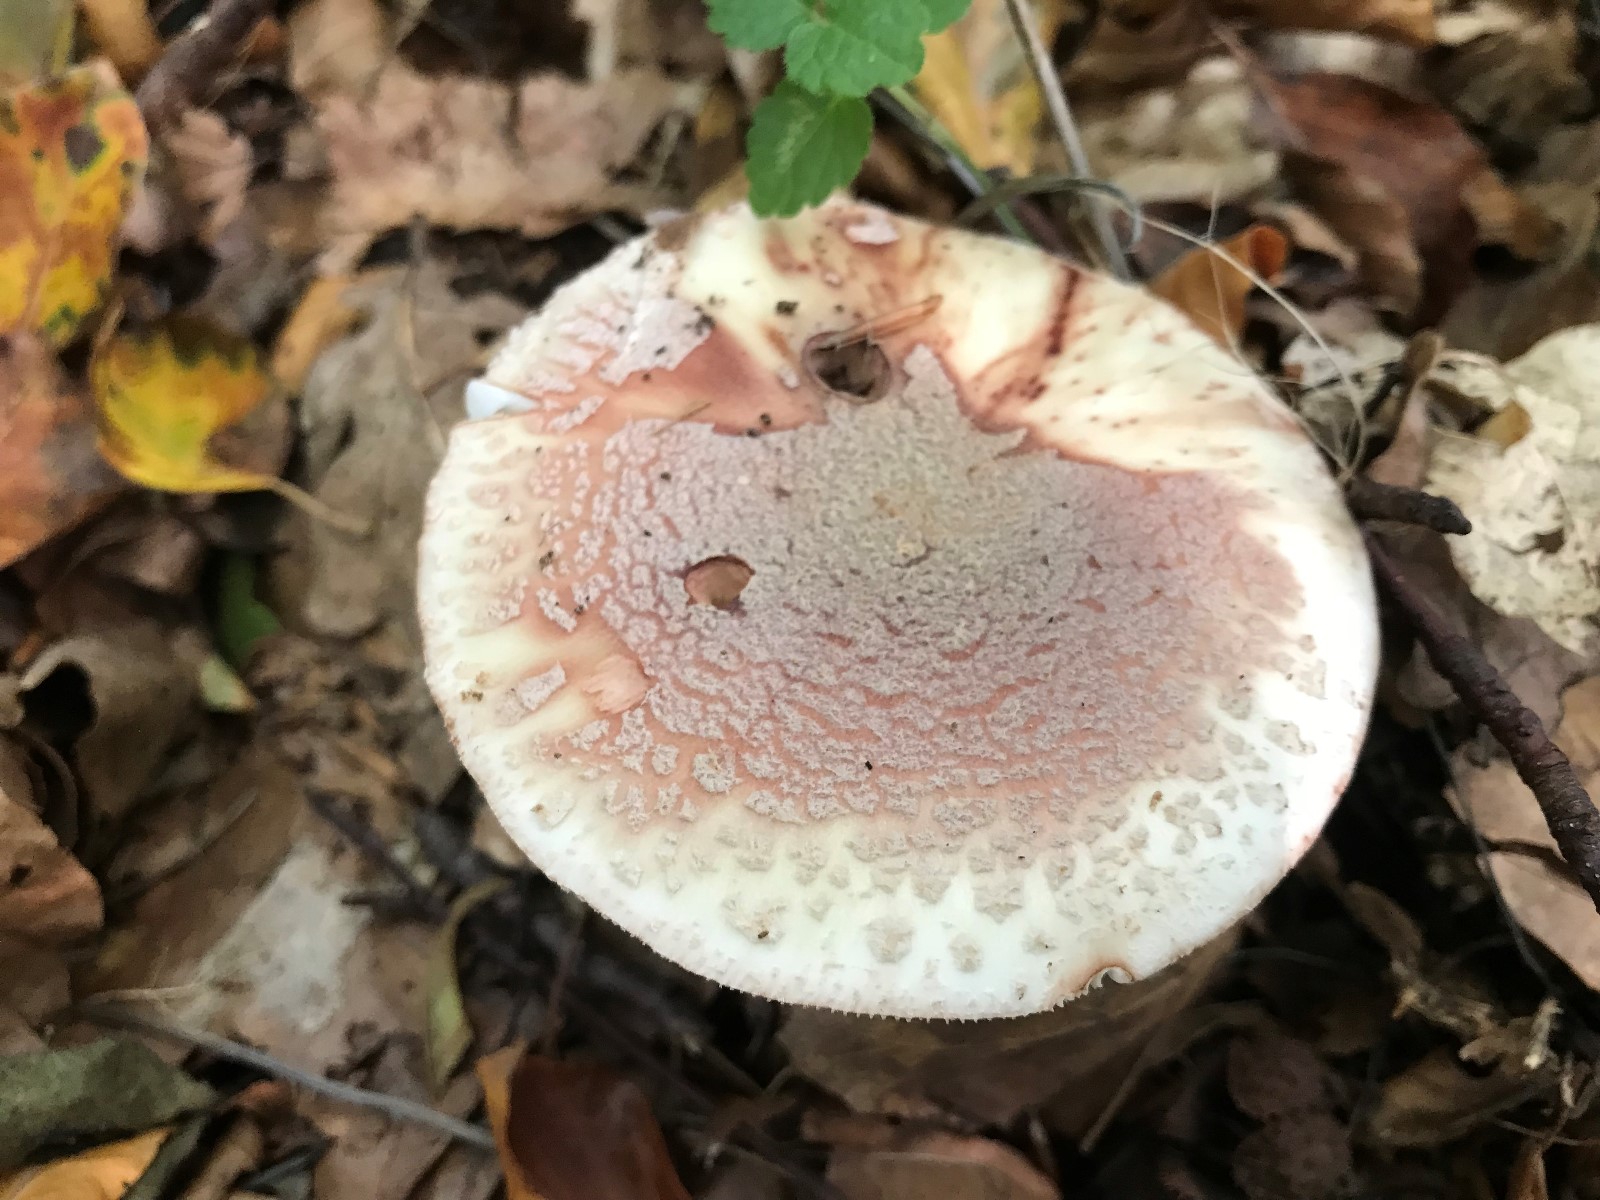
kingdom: Fungi
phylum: Basidiomycota
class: Agaricomycetes
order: Agaricales
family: Amanitaceae
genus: Amanita
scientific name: Amanita rubescens
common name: rødmende fluesvamp
